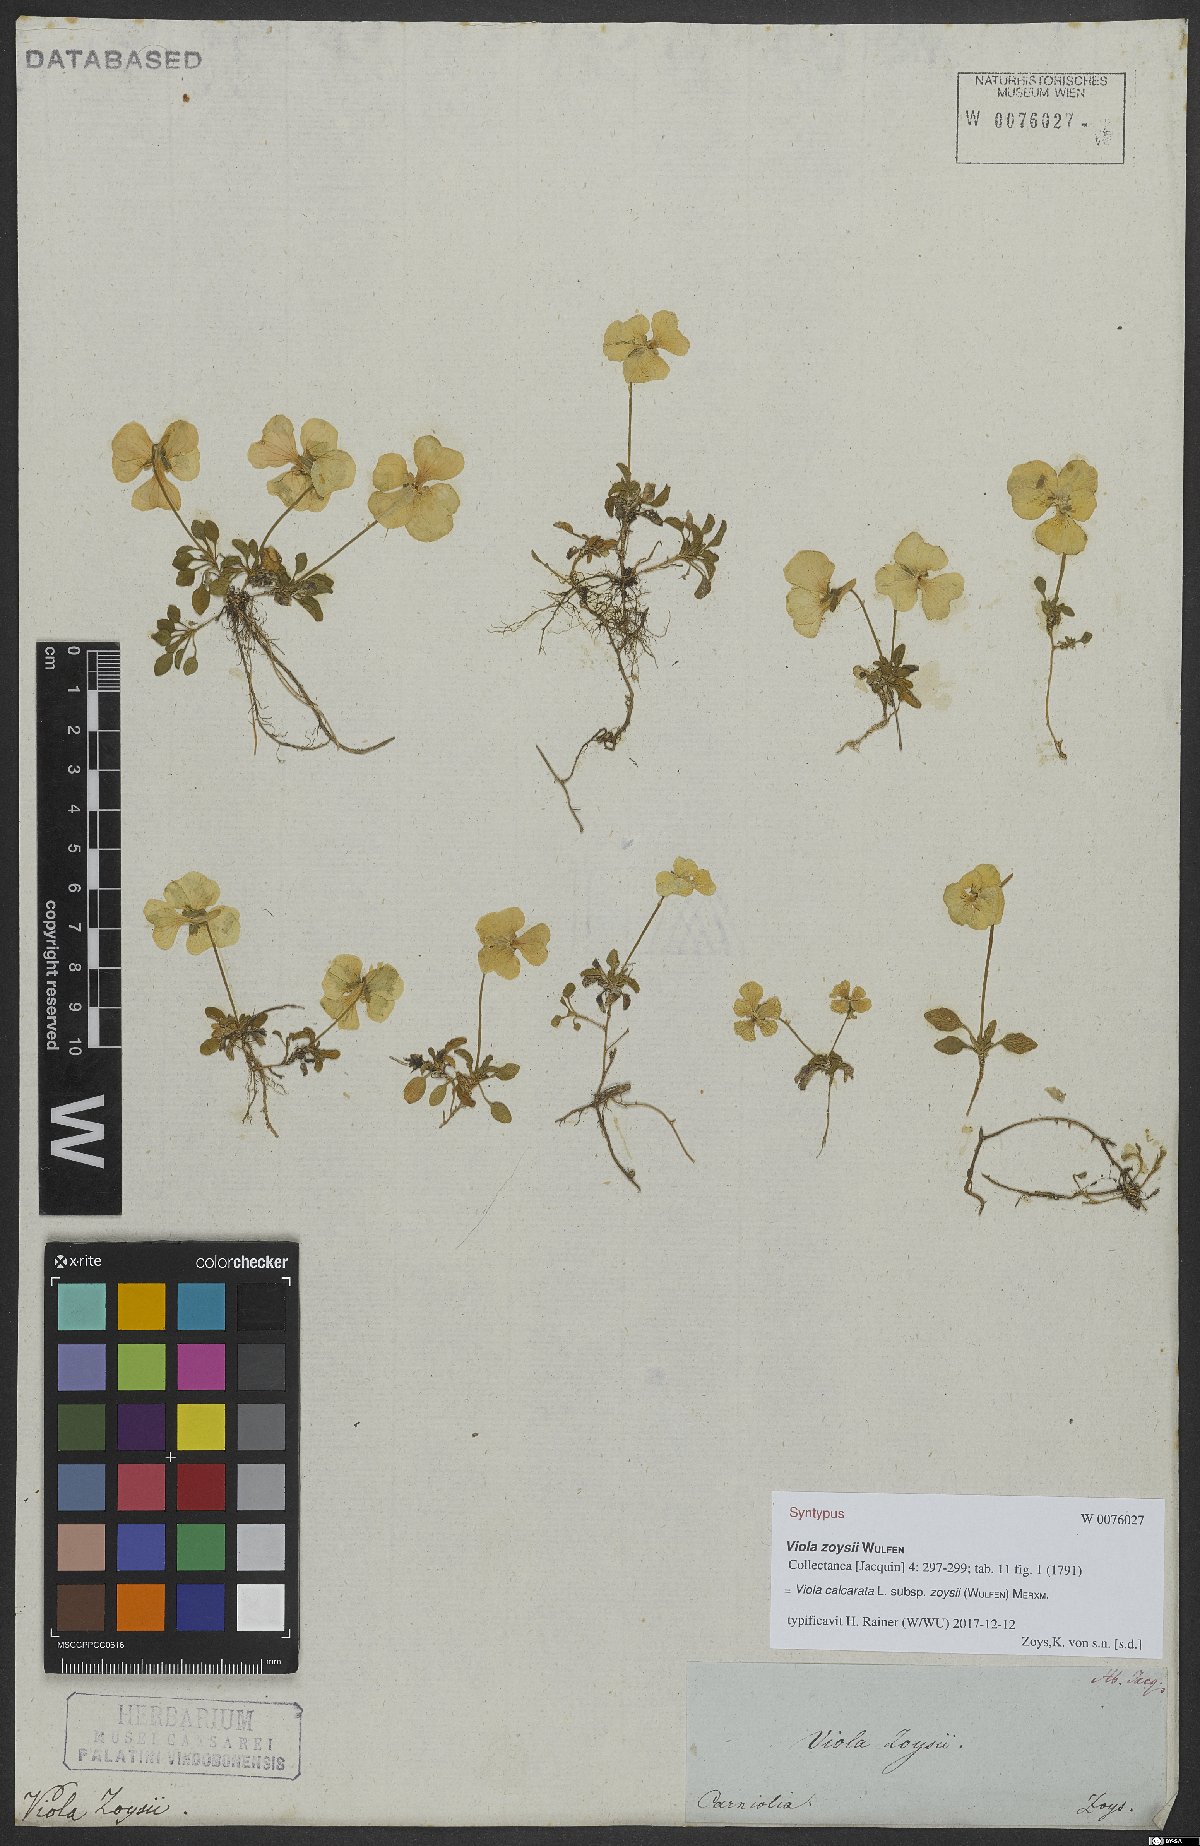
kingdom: Plantae
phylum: Tracheophyta
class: Magnoliopsida
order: Malpighiales
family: Violaceae
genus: Viola
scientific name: Viola calcarata
